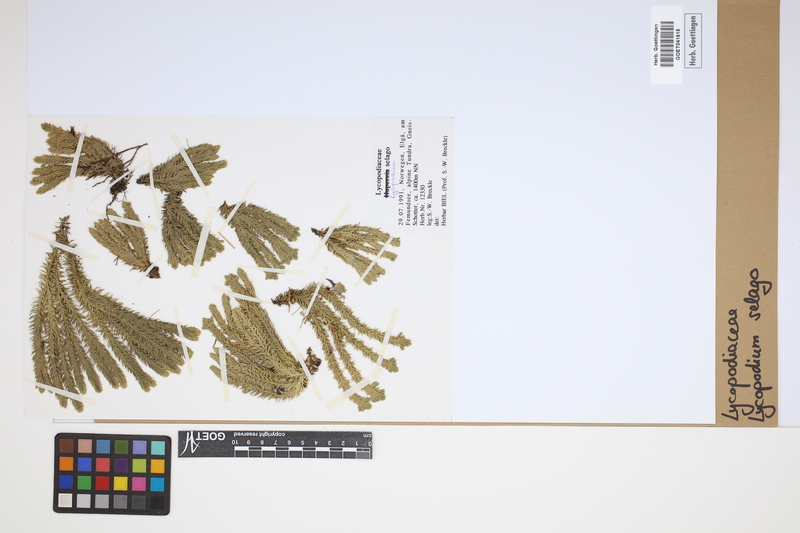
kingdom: Plantae
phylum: Tracheophyta
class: Lycopodiopsida
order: Lycopodiales
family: Lycopodiaceae
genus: Huperzia
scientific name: Huperzia selago
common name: Northern firmoss
